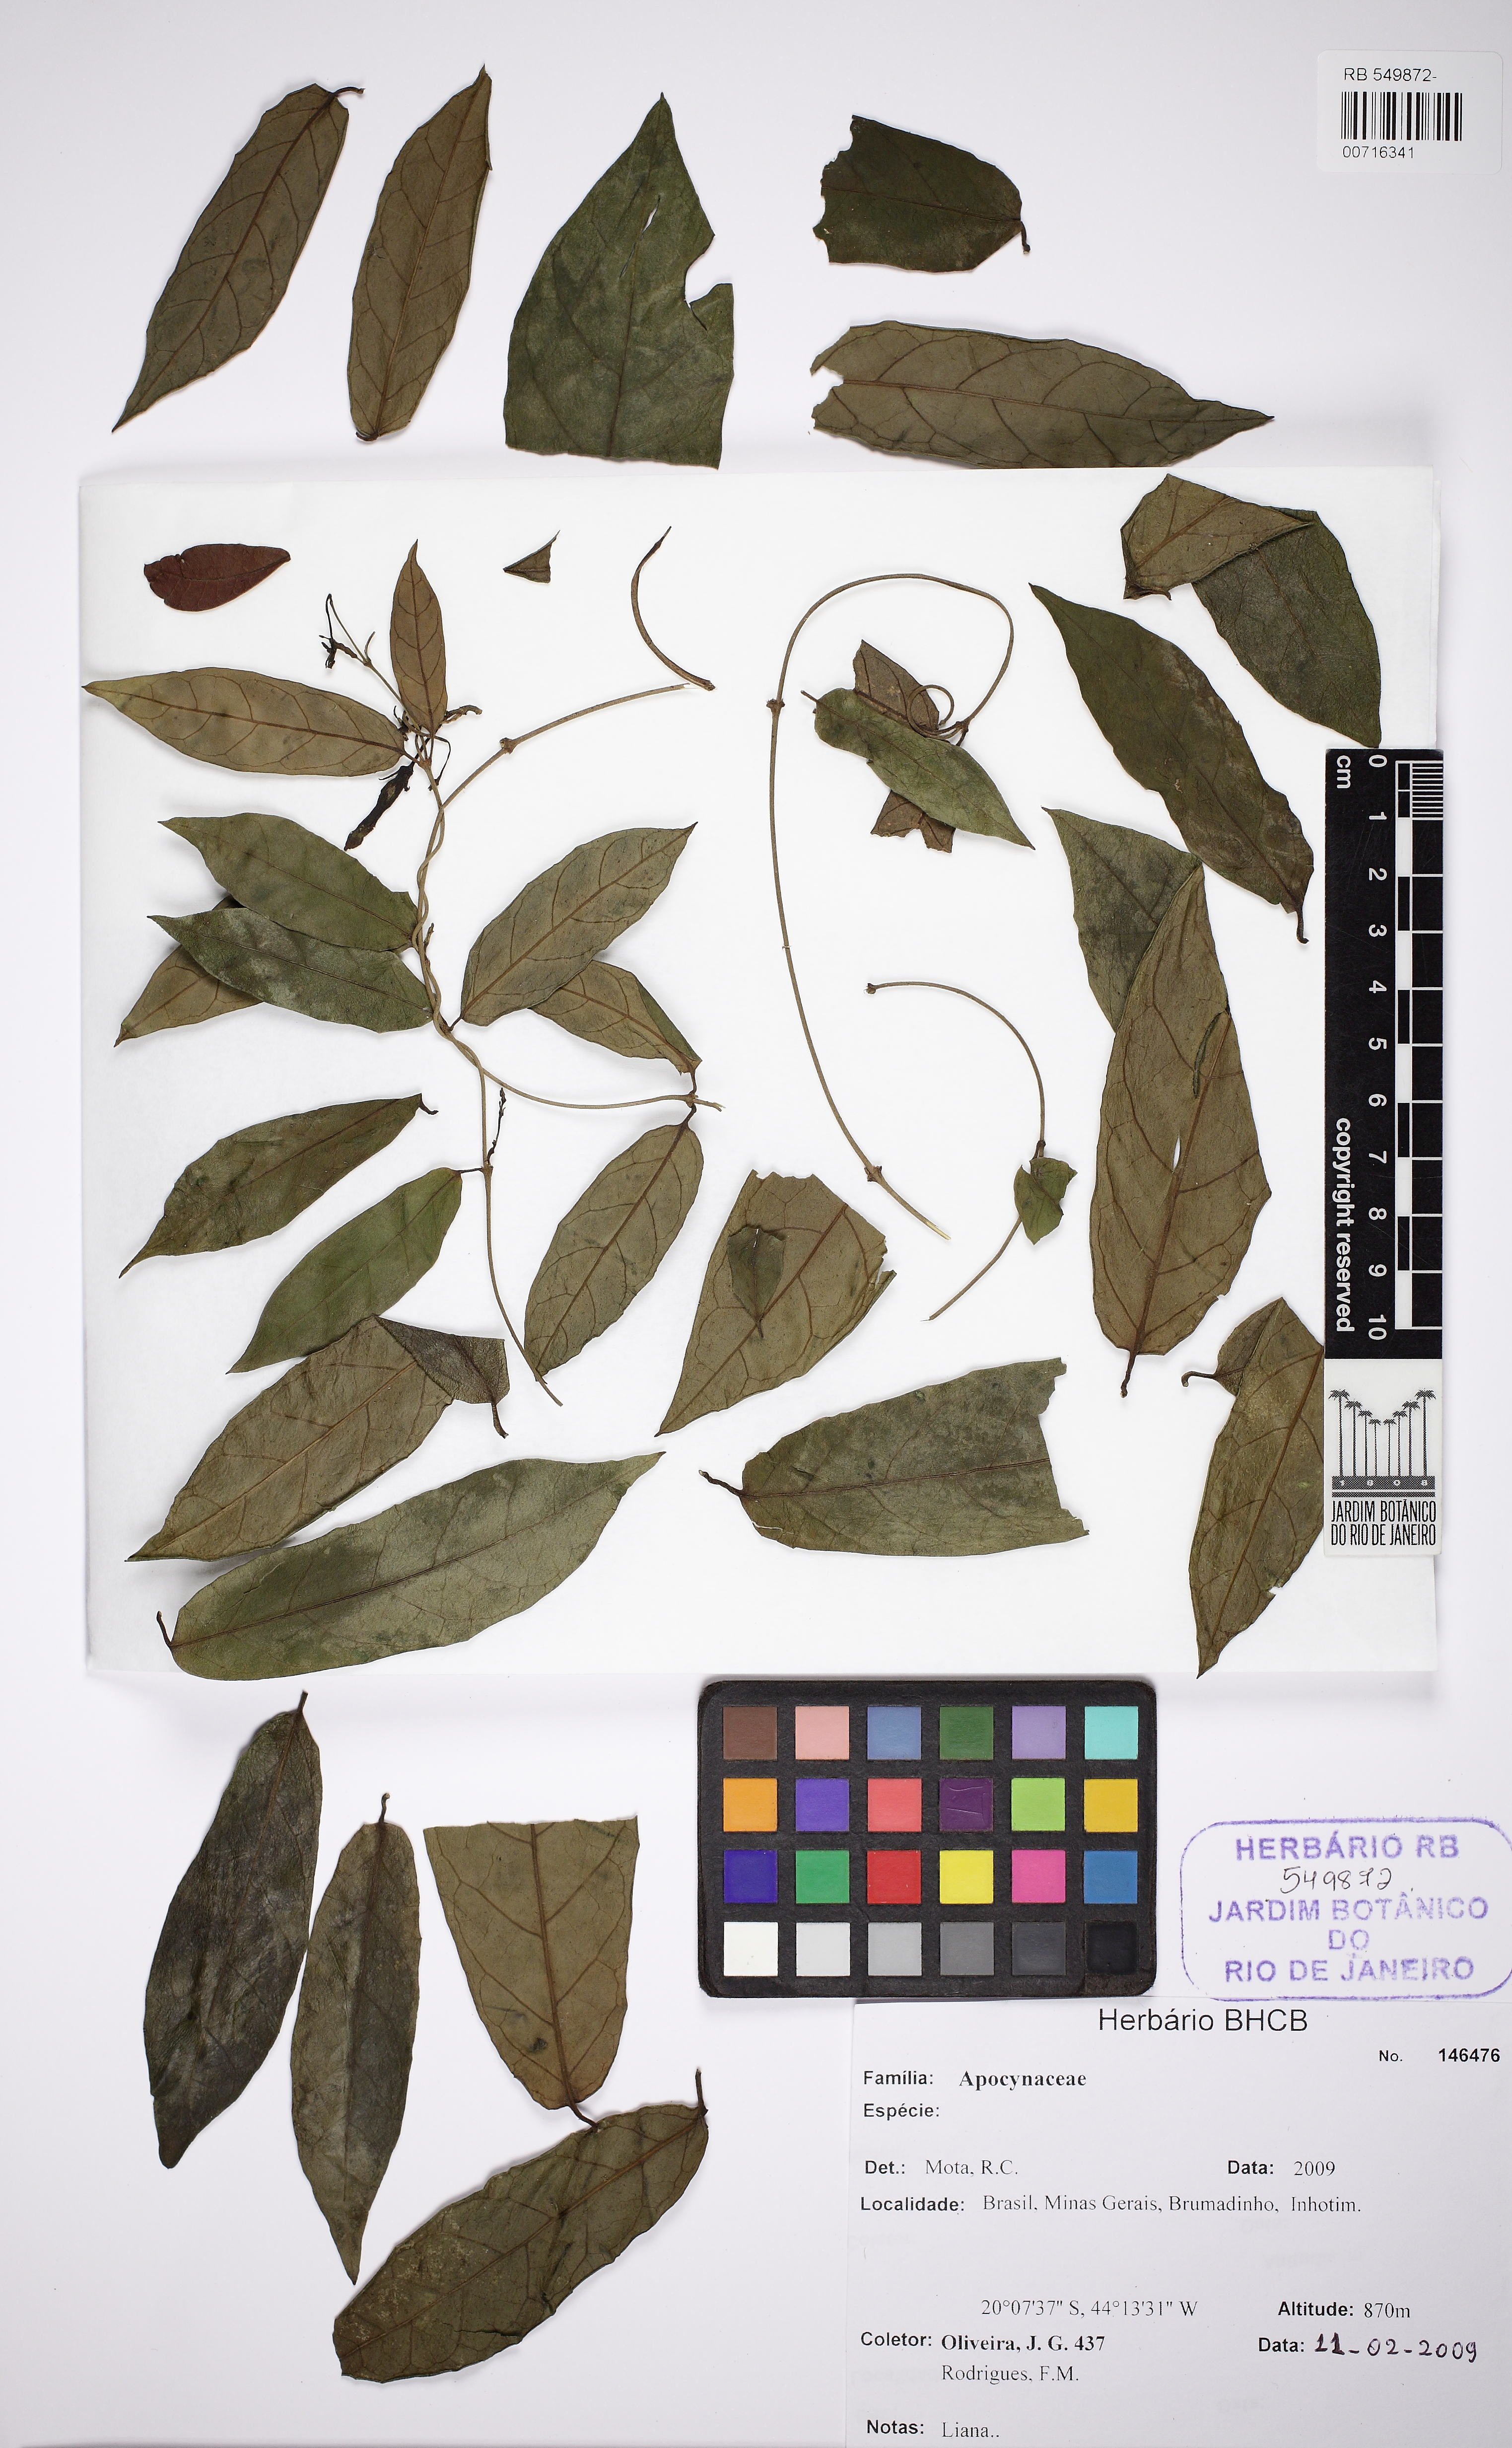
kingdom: Plantae
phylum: Tracheophyta
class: Magnoliopsida
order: Gentianales
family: Apocynaceae
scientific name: Apocynaceae
